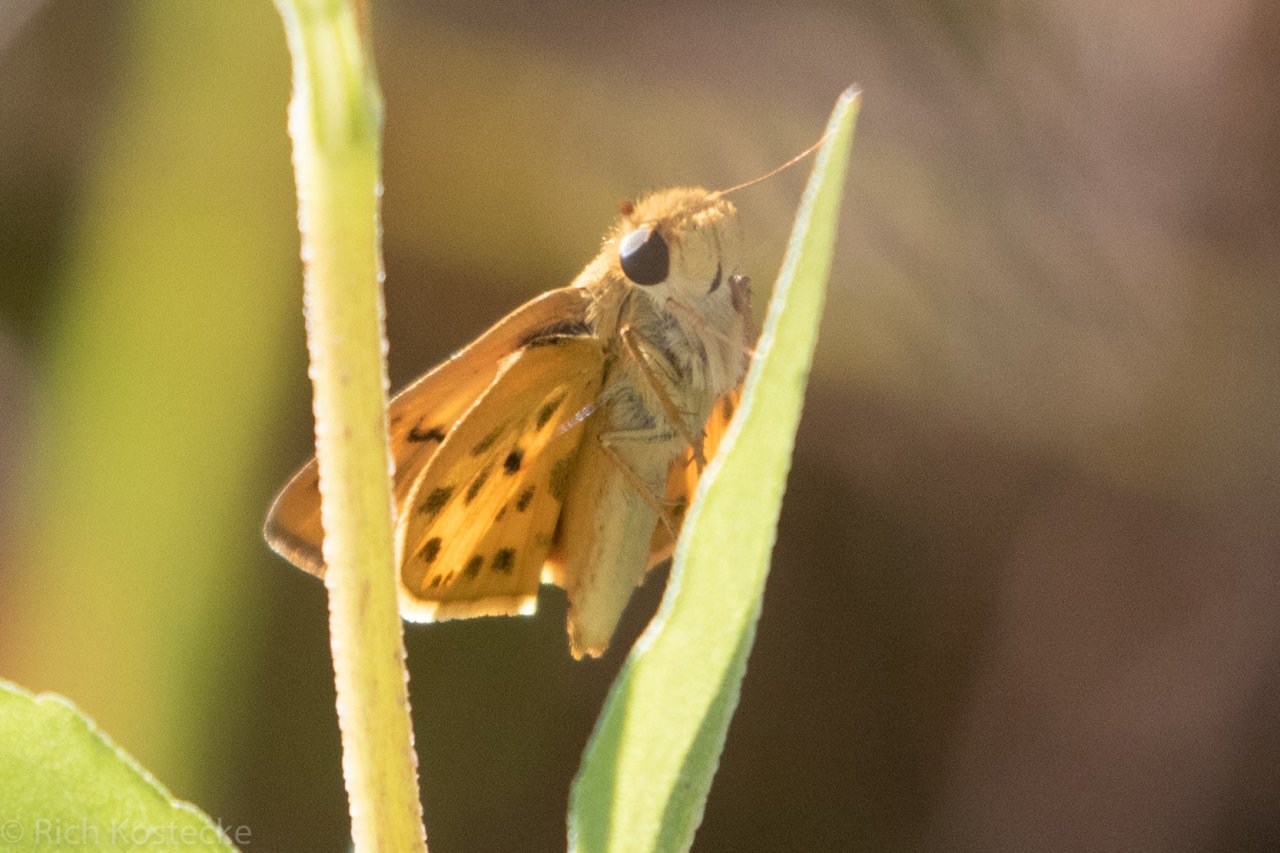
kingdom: Animalia
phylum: Arthropoda
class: Insecta
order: Lepidoptera
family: Hesperiidae
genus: Hylephila
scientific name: Hylephila phyleus
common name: Fiery Skipper
